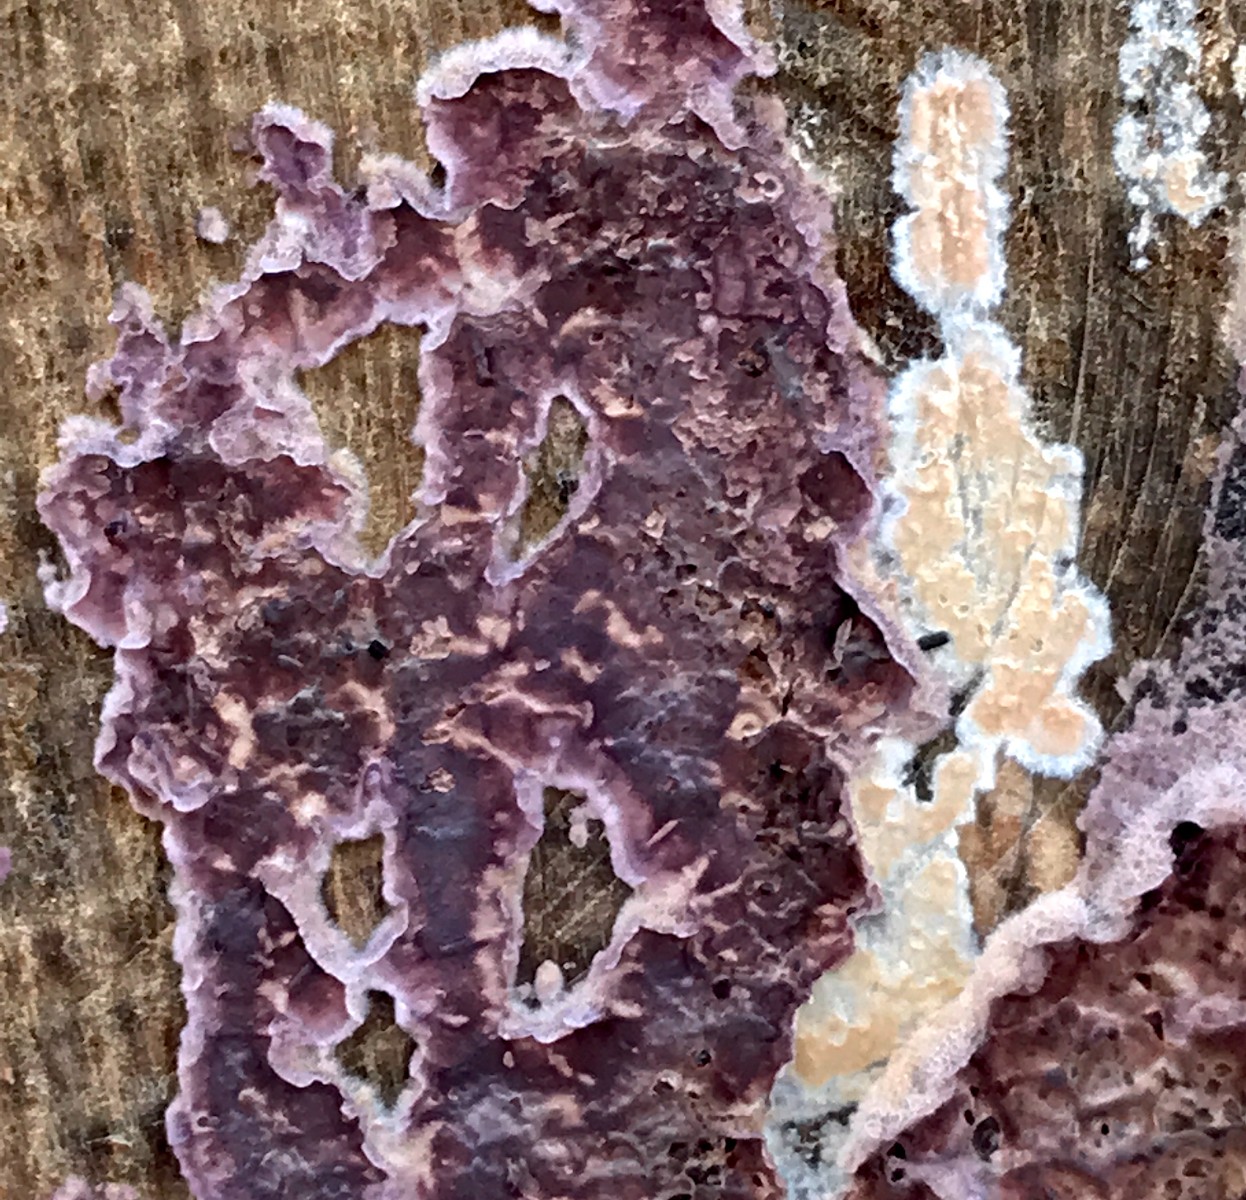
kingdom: Fungi
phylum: Basidiomycota
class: Agaricomycetes
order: Agaricales
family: Cyphellaceae
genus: Chondrostereum
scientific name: Chondrostereum purpureum
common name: purpurlædersvamp
